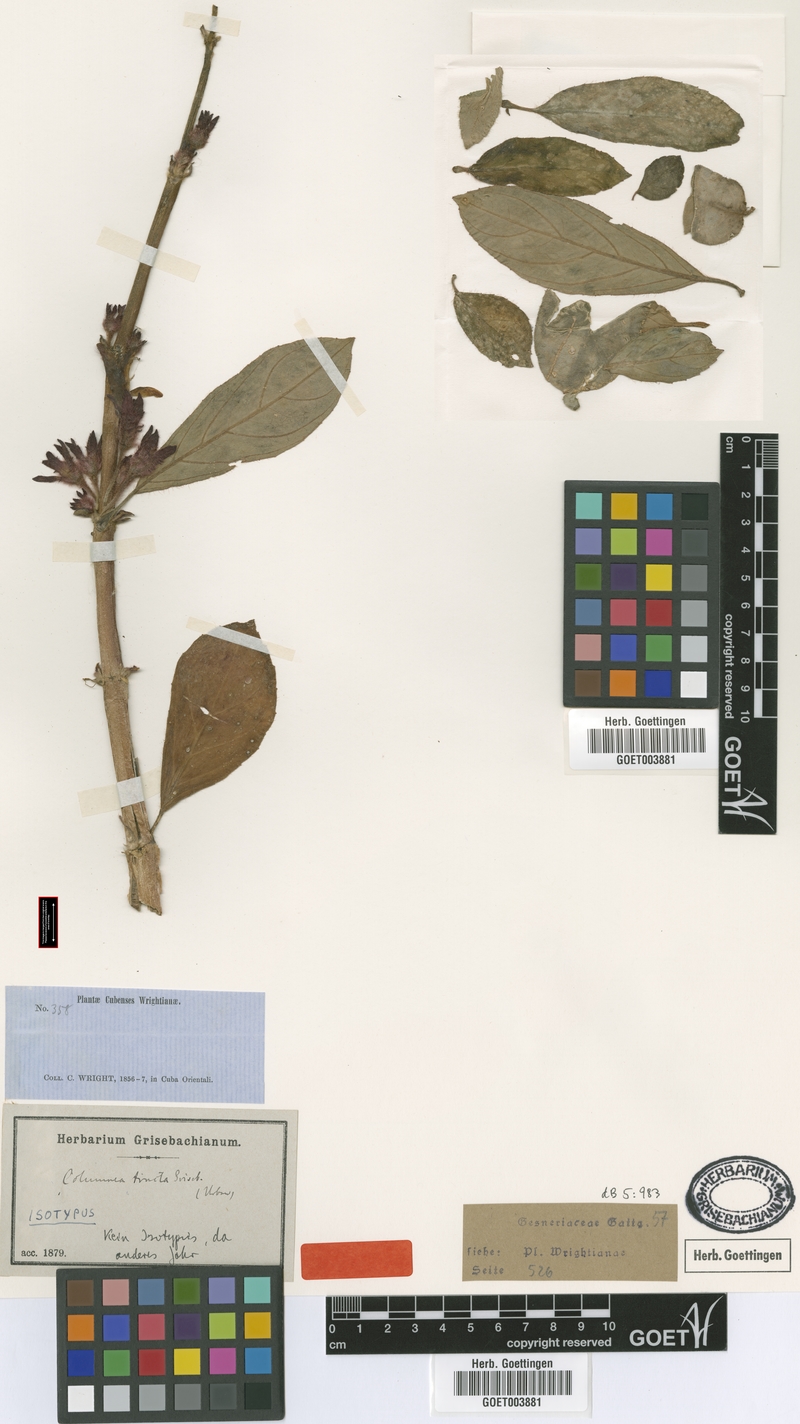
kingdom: Plantae
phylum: Tracheophyta
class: Magnoliopsida
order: Lamiales
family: Gesneriaceae
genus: Columnea
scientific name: Columnea tincta
